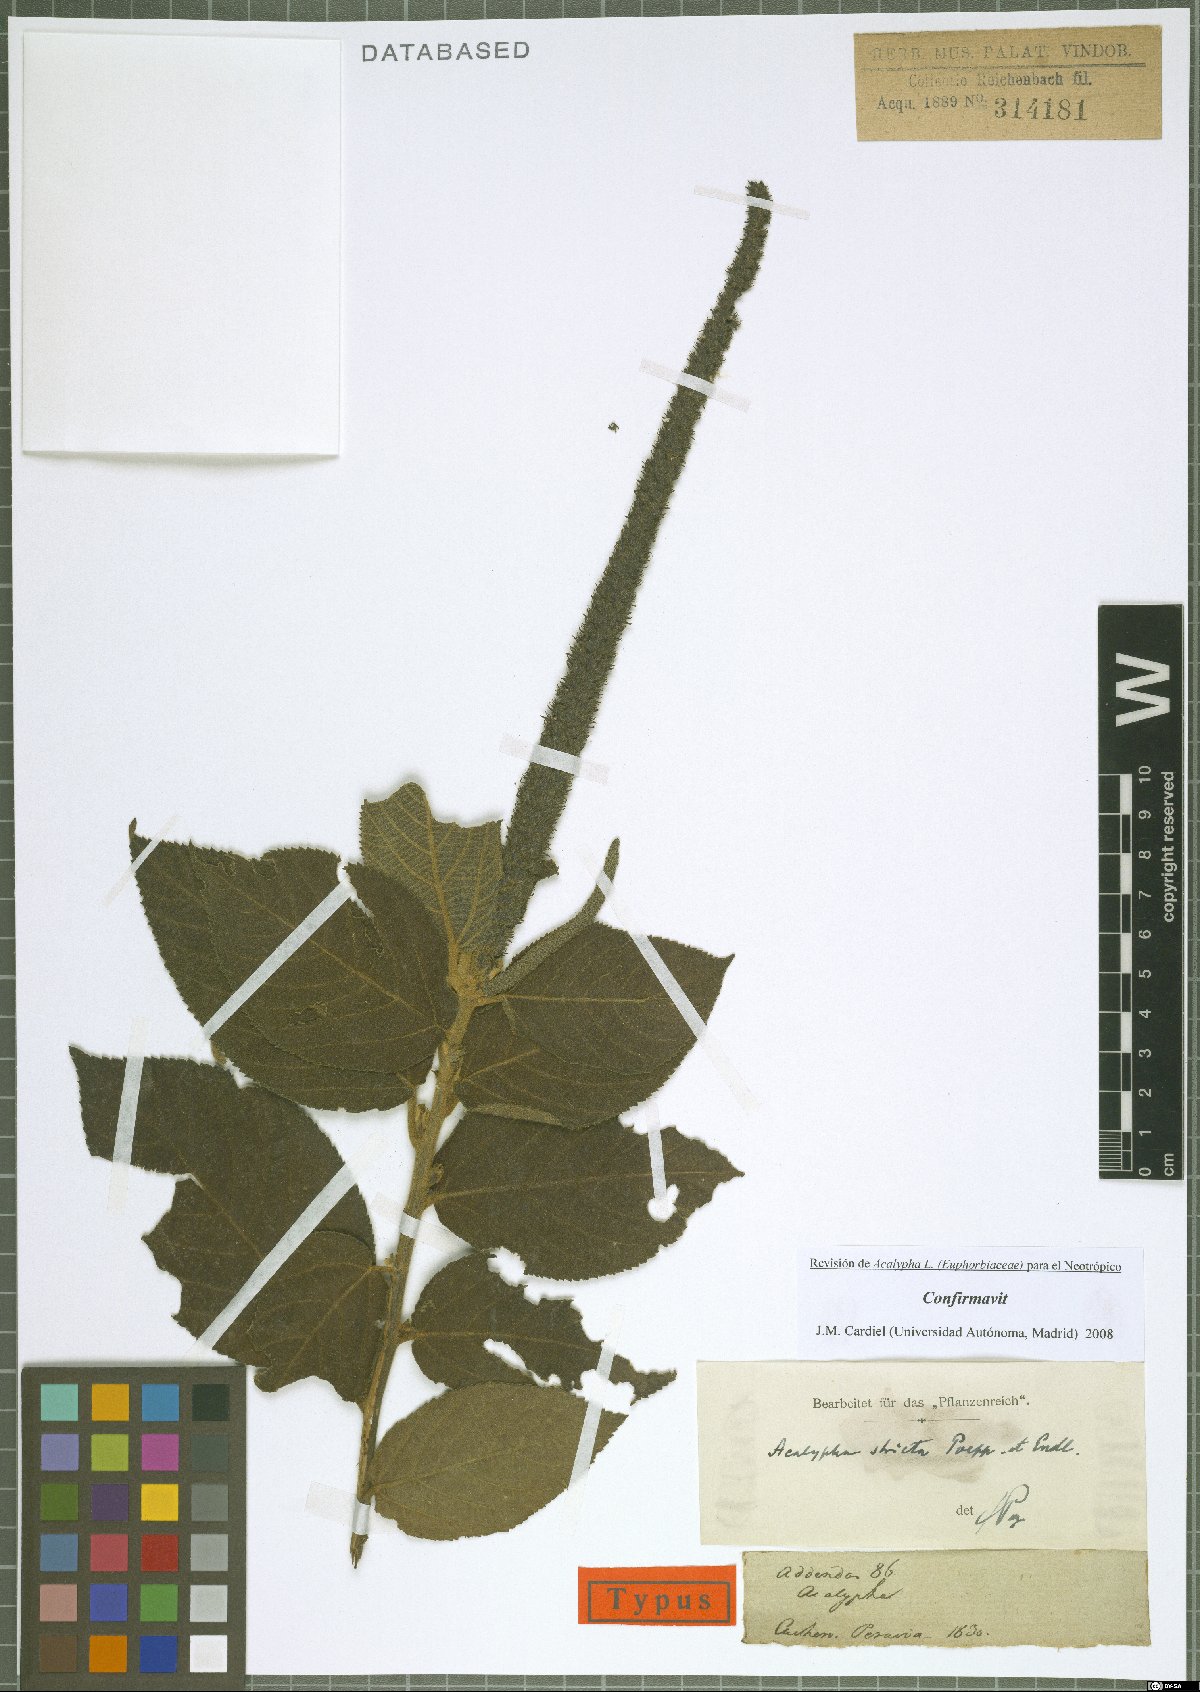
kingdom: Plantae
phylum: Tracheophyta
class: Magnoliopsida
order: Malpighiales
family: Euphorbiaceae
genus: Acalypha
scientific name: Acalypha stricta
